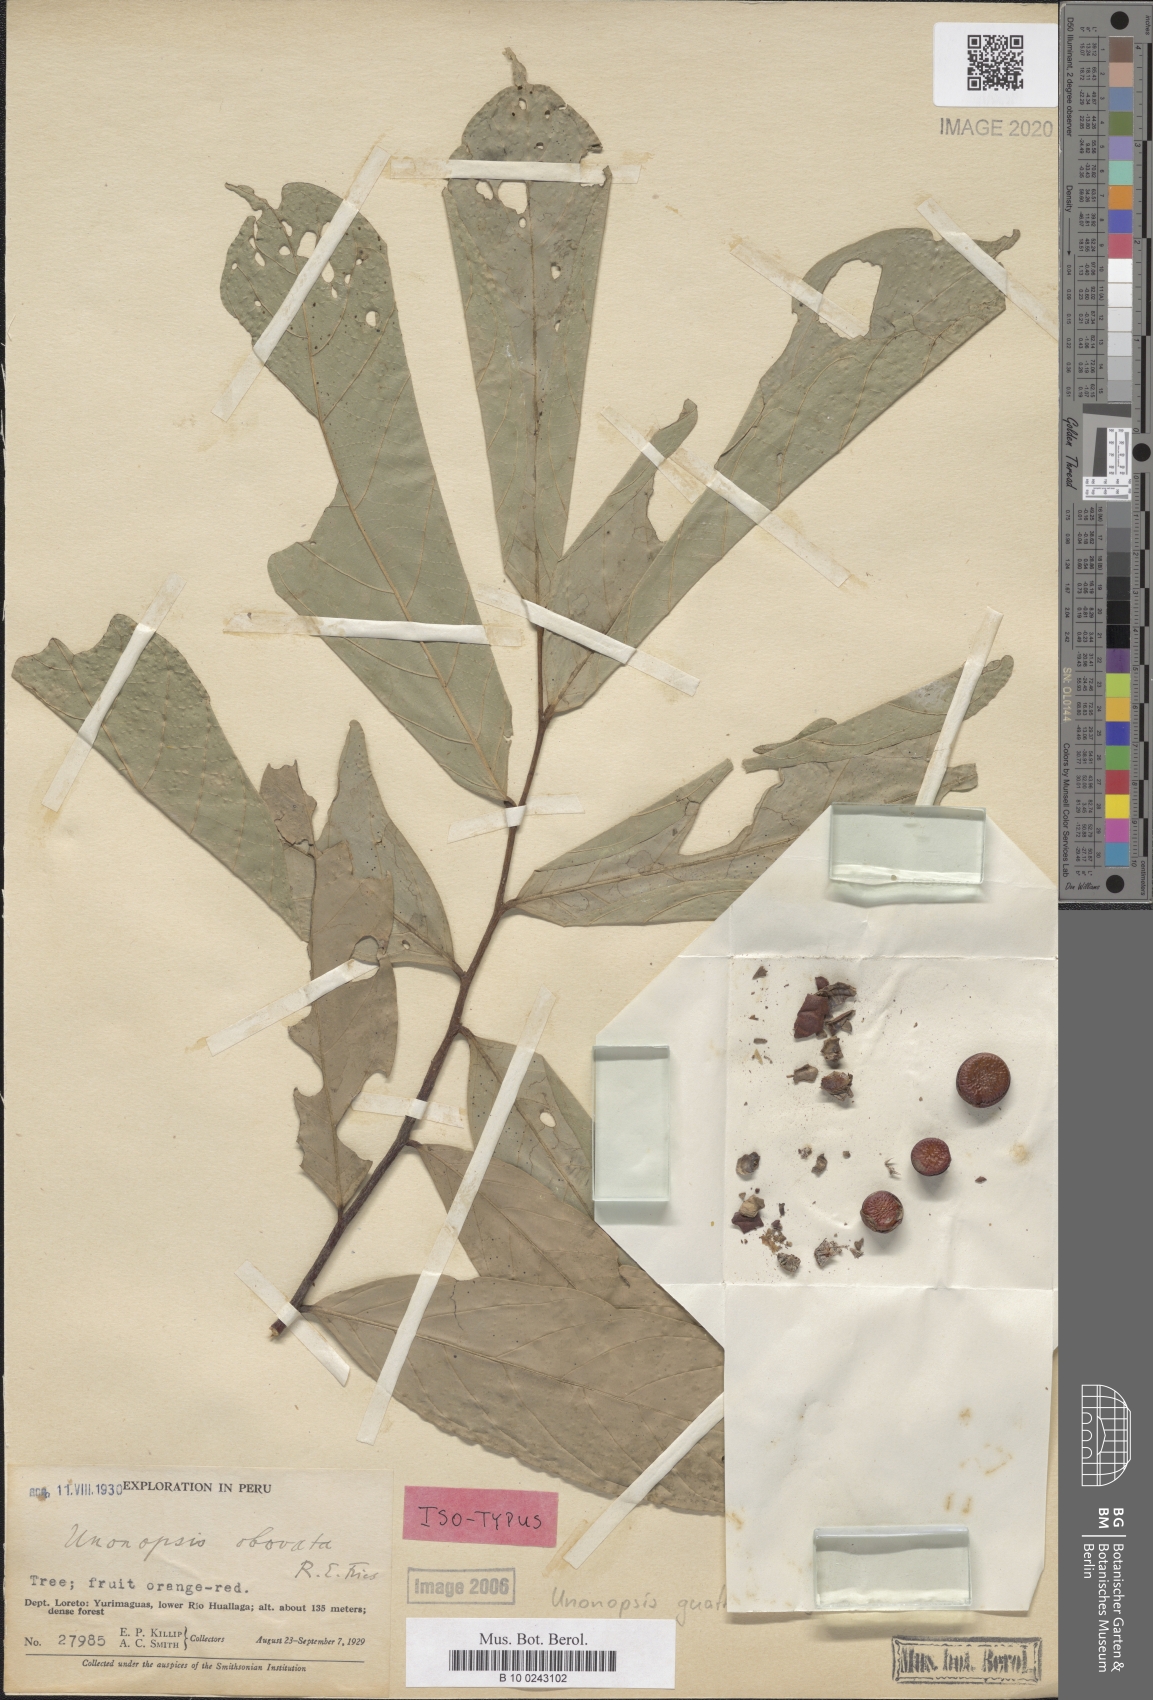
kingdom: Plantae
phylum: Tracheophyta
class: Magnoliopsida
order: Magnoliales
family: Annonaceae
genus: Unonopsis
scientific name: Unonopsis guatterioides
